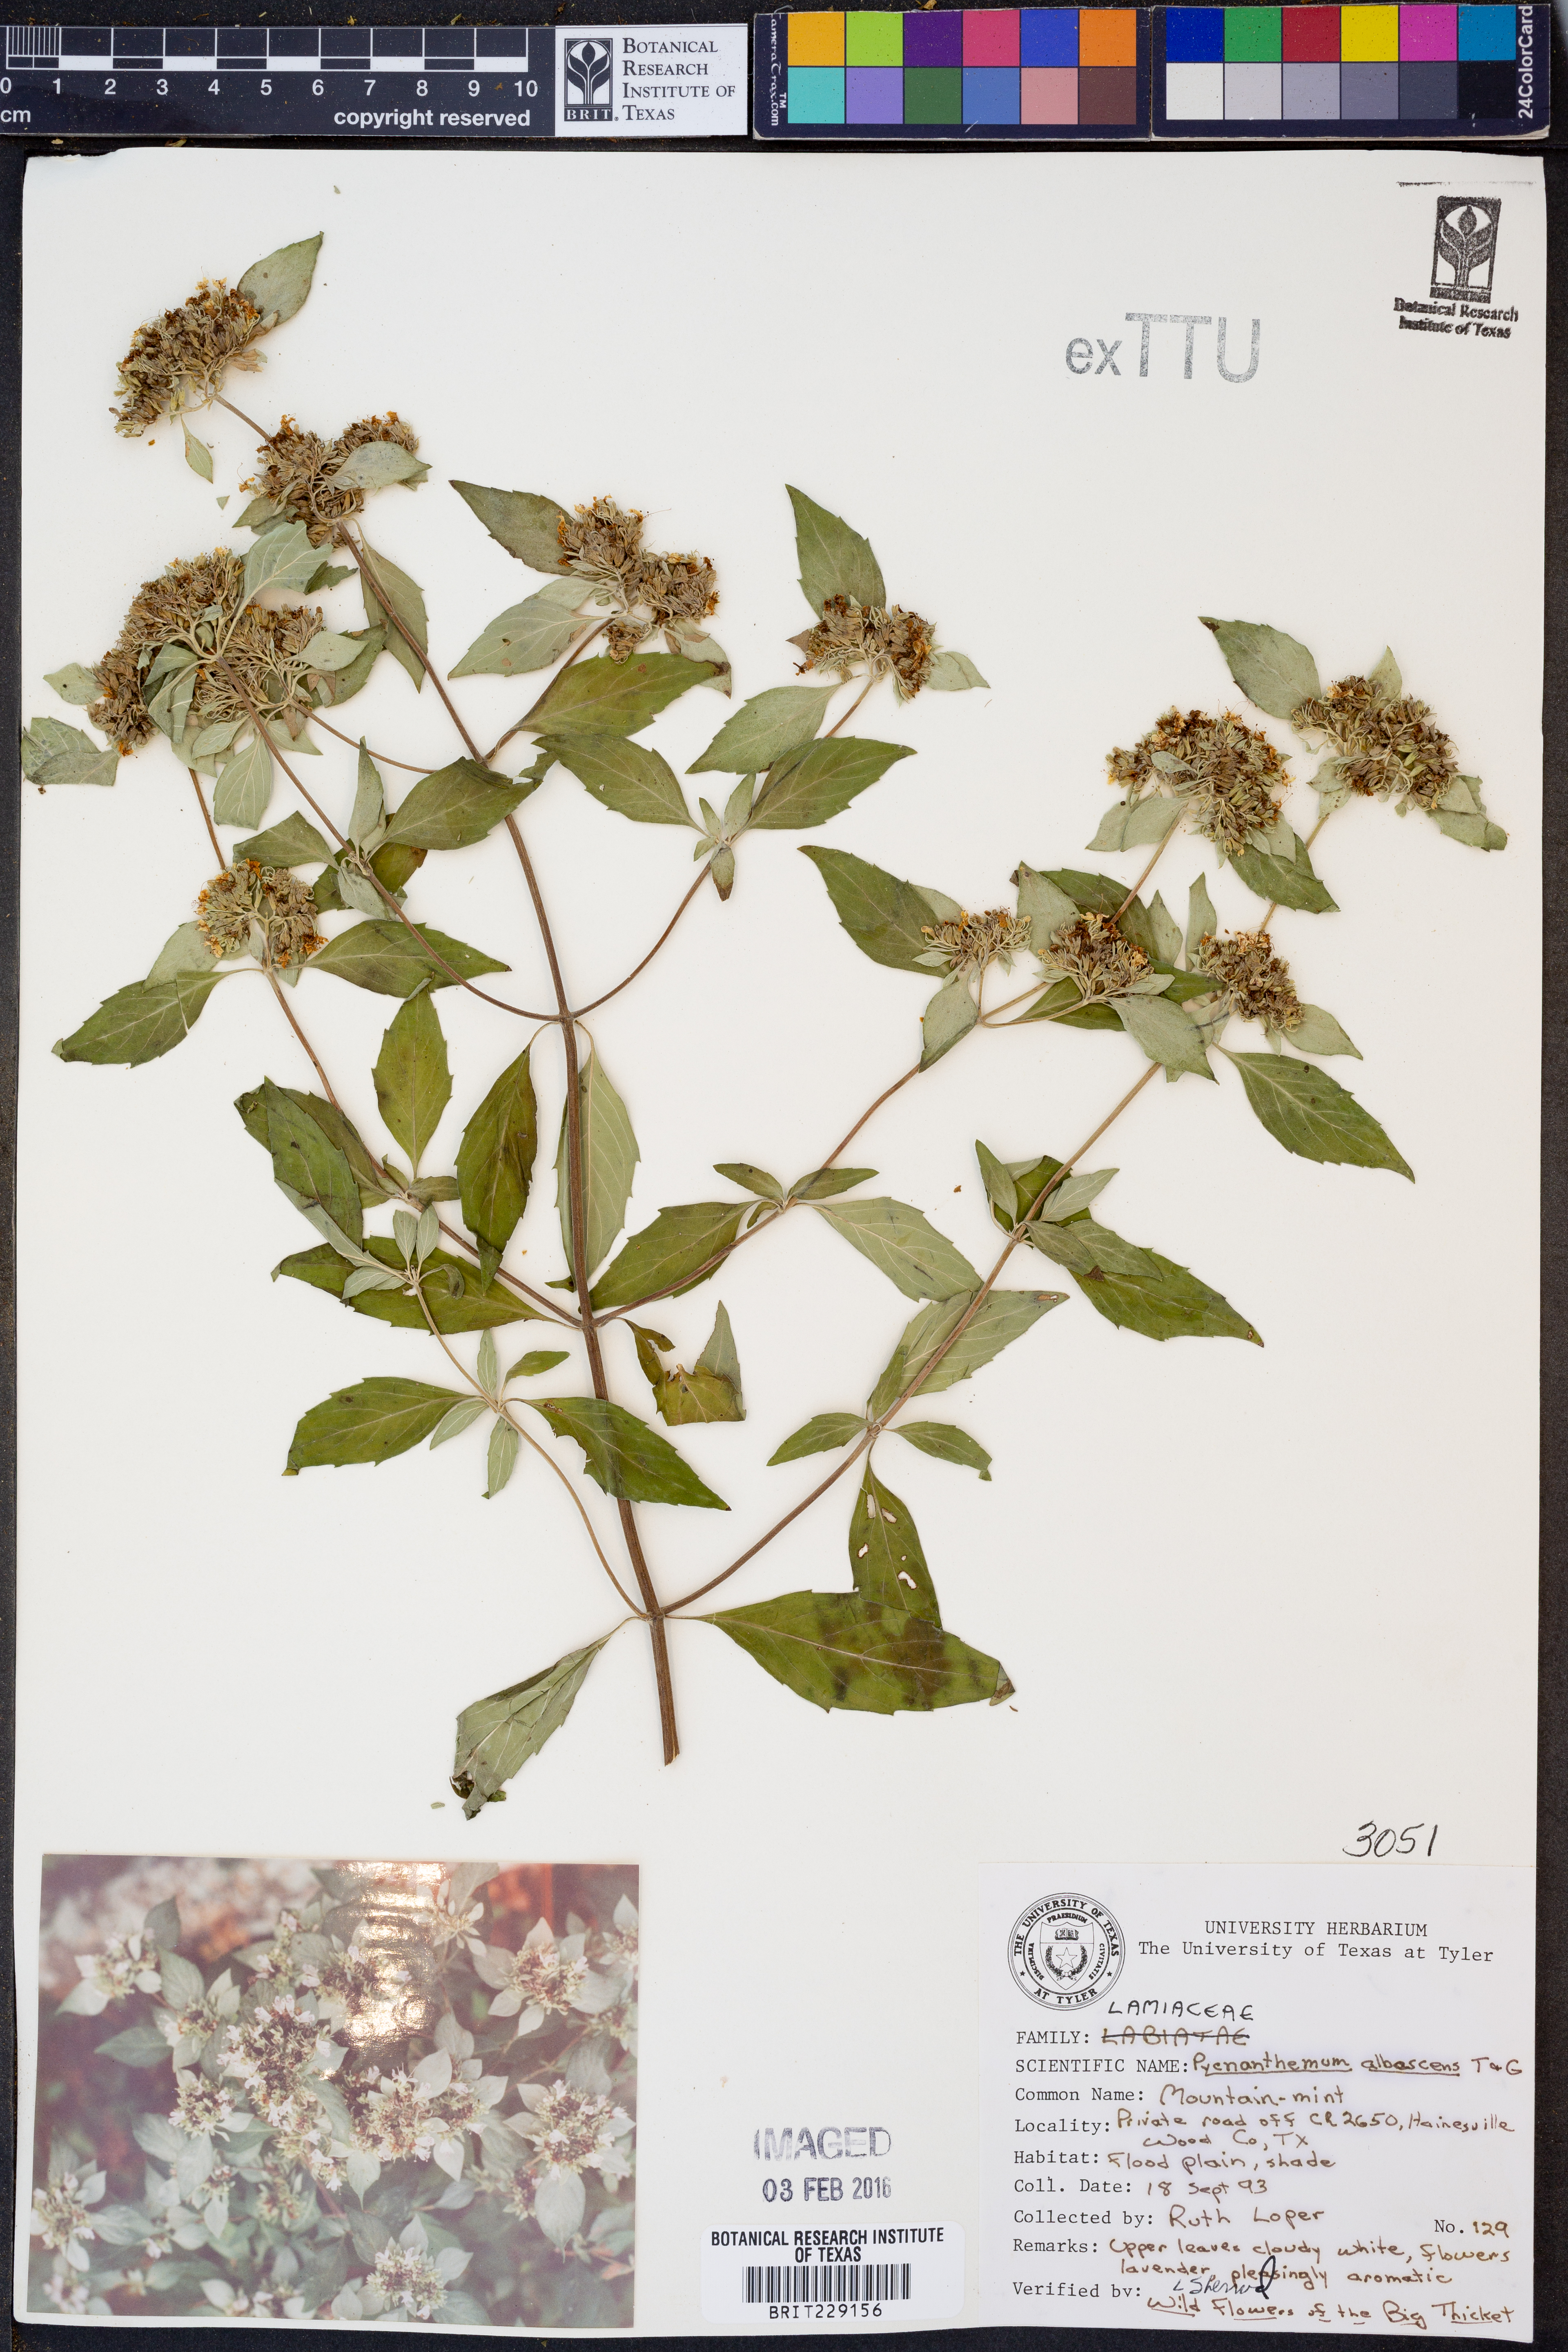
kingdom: Plantae
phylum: Tracheophyta
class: Magnoliopsida
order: Lamiales
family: Lamiaceae
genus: Pycnanthemum
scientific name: Pycnanthemum albescens
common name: White-leaf mountain-mint
